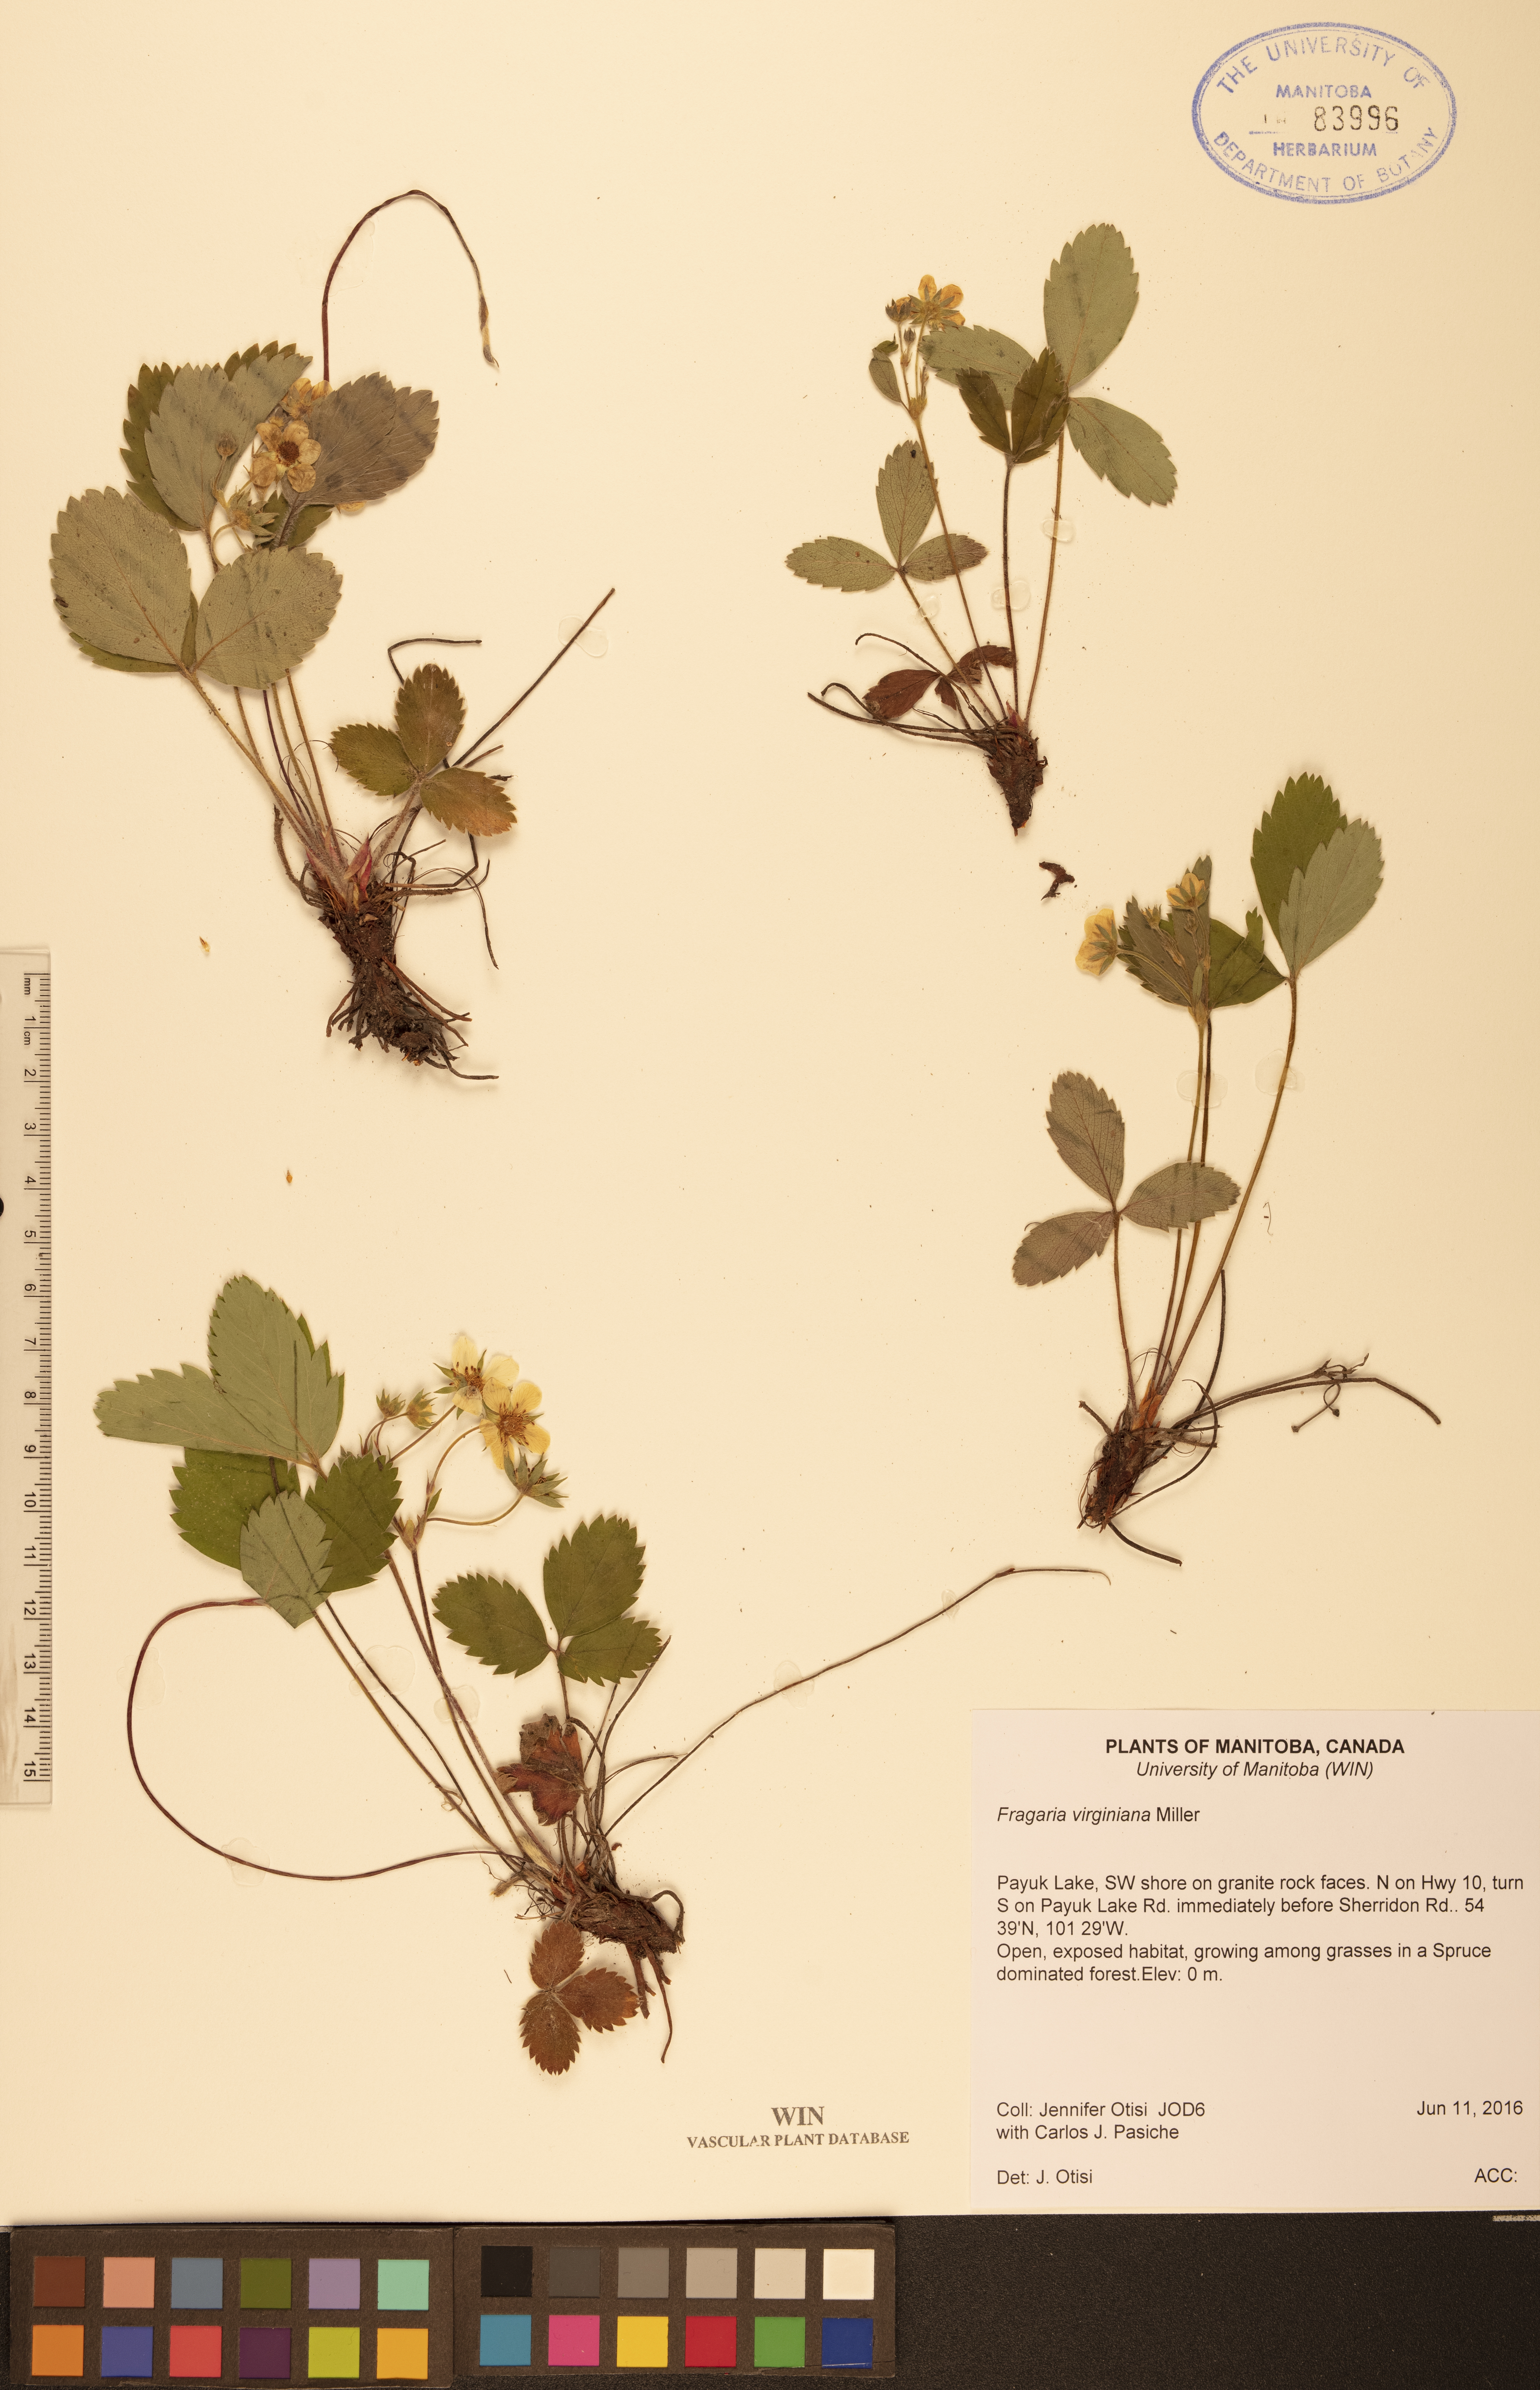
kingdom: Plantae
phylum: Tracheophyta
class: Magnoliopsida
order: Rosales
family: Rosaceae
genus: Fragaria
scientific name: Fragaria virginiana
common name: Thickleaved wild strawberry
